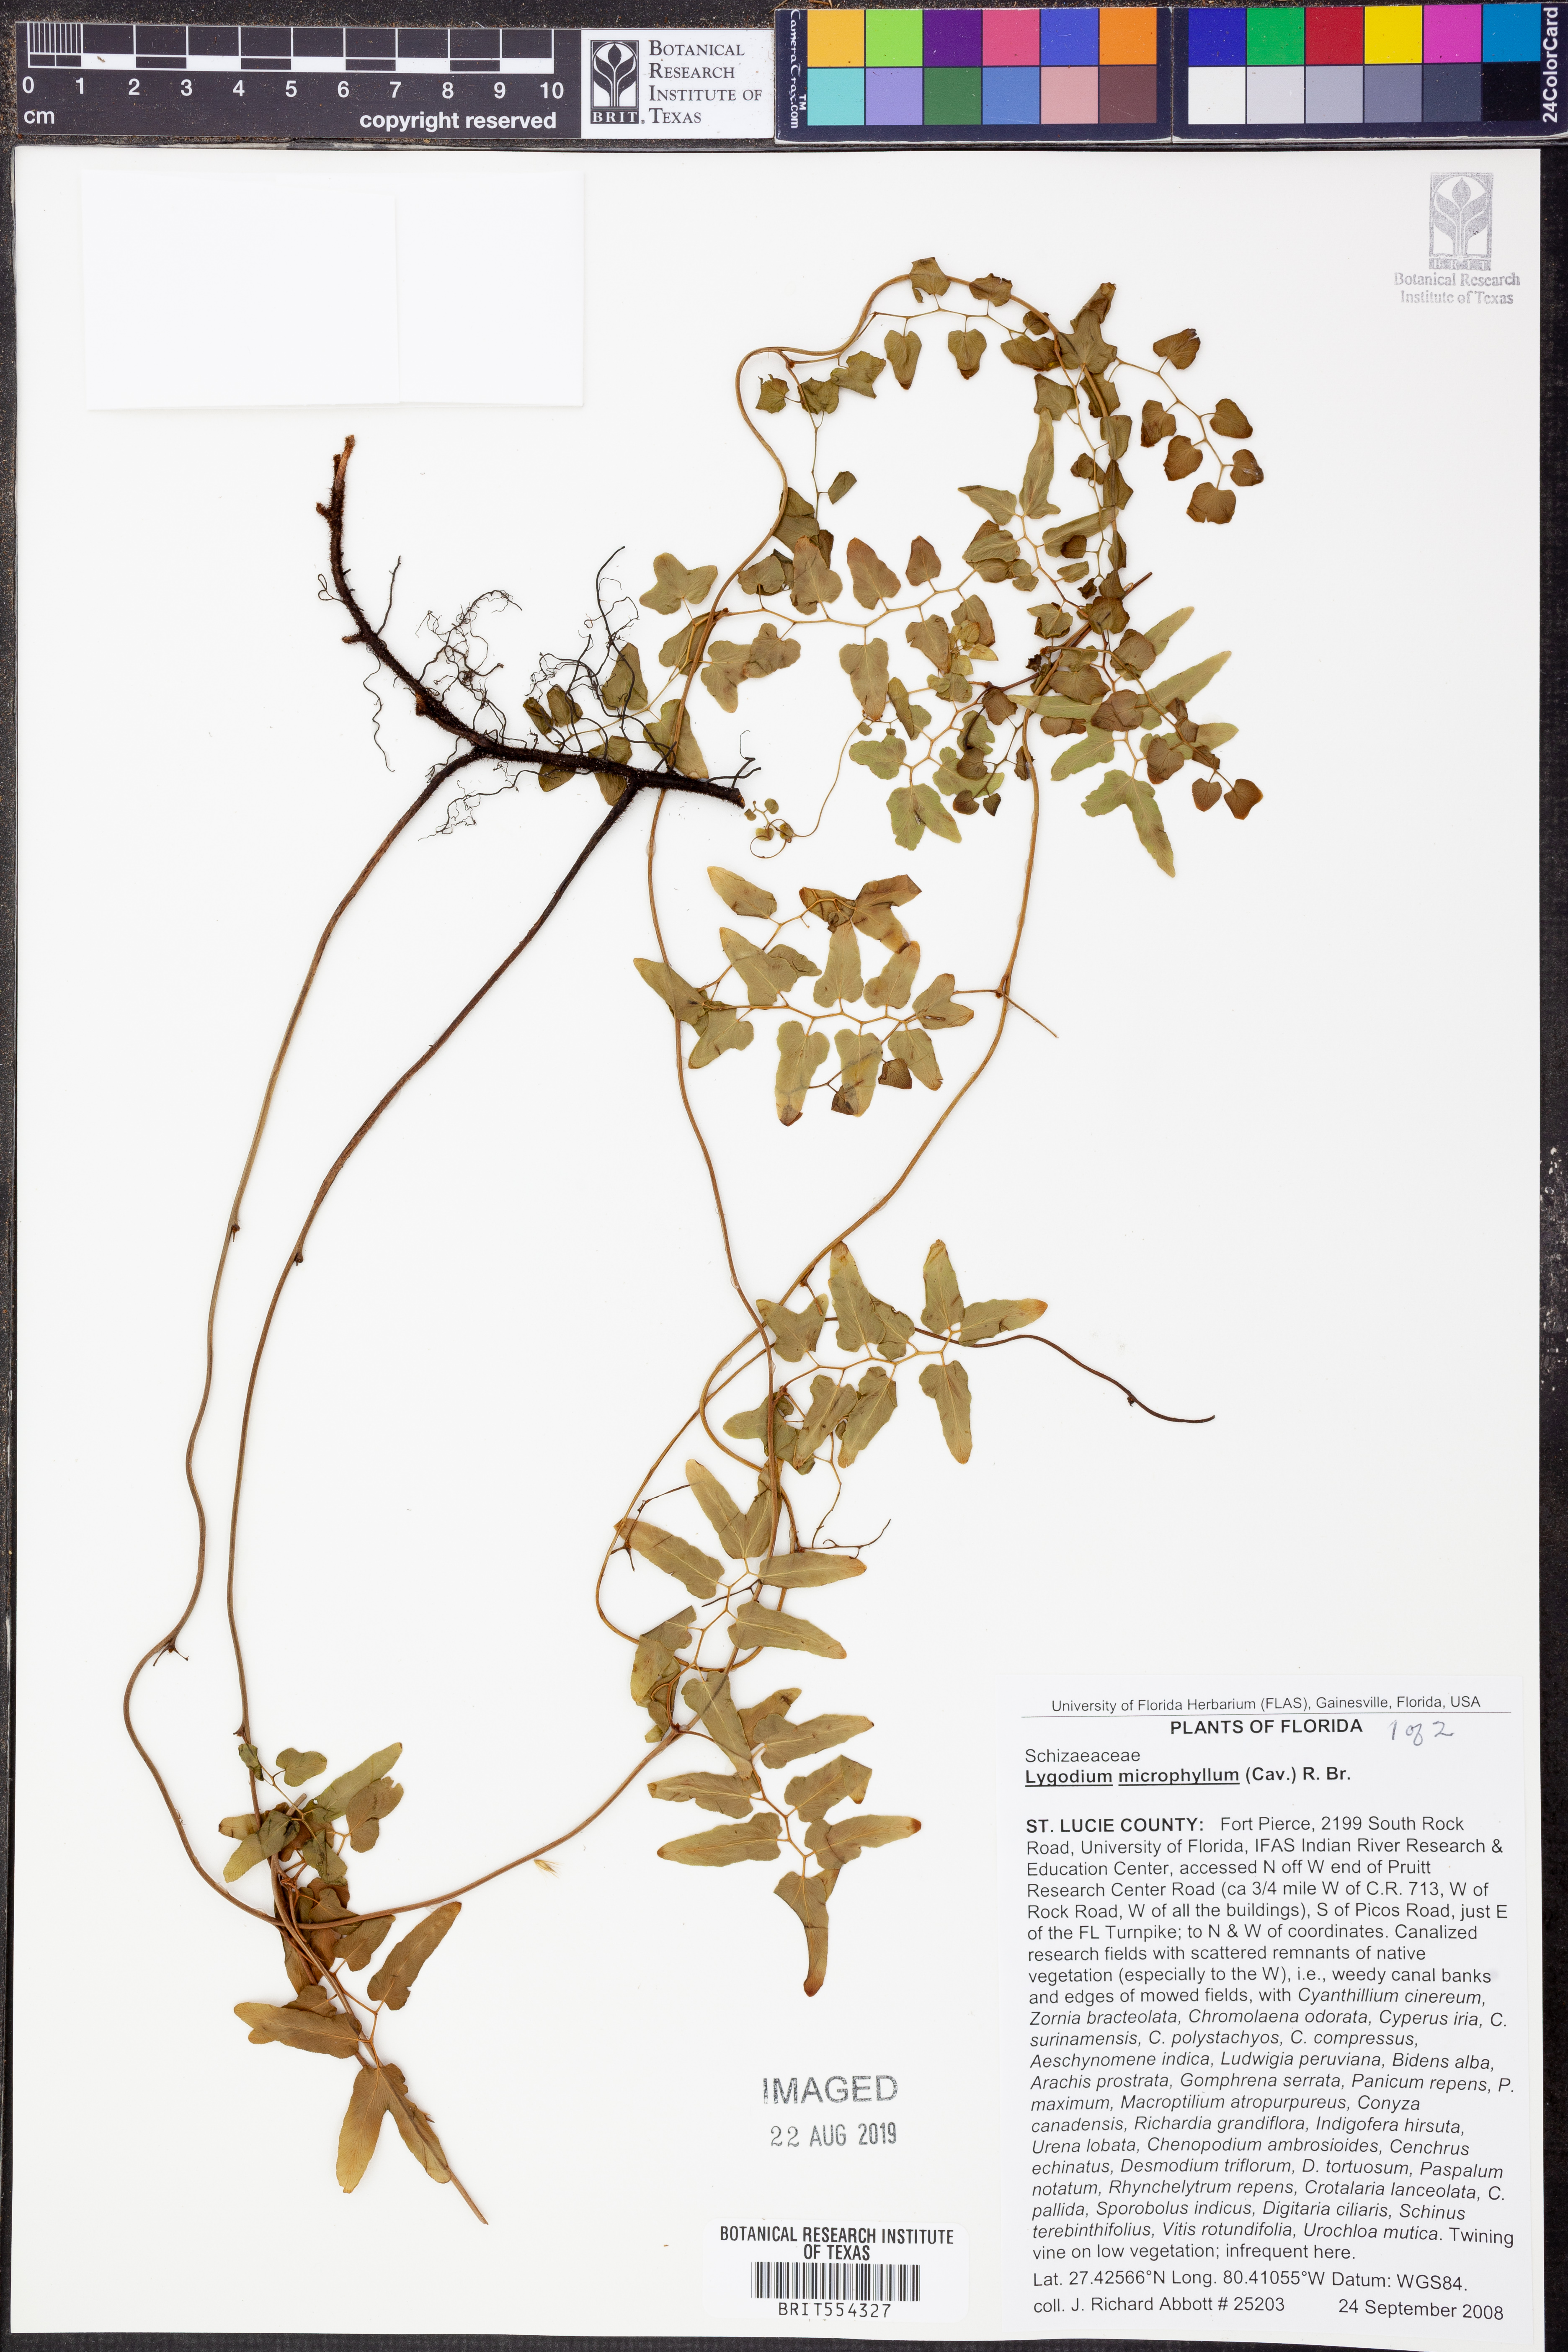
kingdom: Plantae
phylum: Tracheophyta
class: Polypodiopsida
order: Schizaeales
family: Lygodiaceae
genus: Lygodium
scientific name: Lygodium microphyllum
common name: Small-leaf climbing fern
